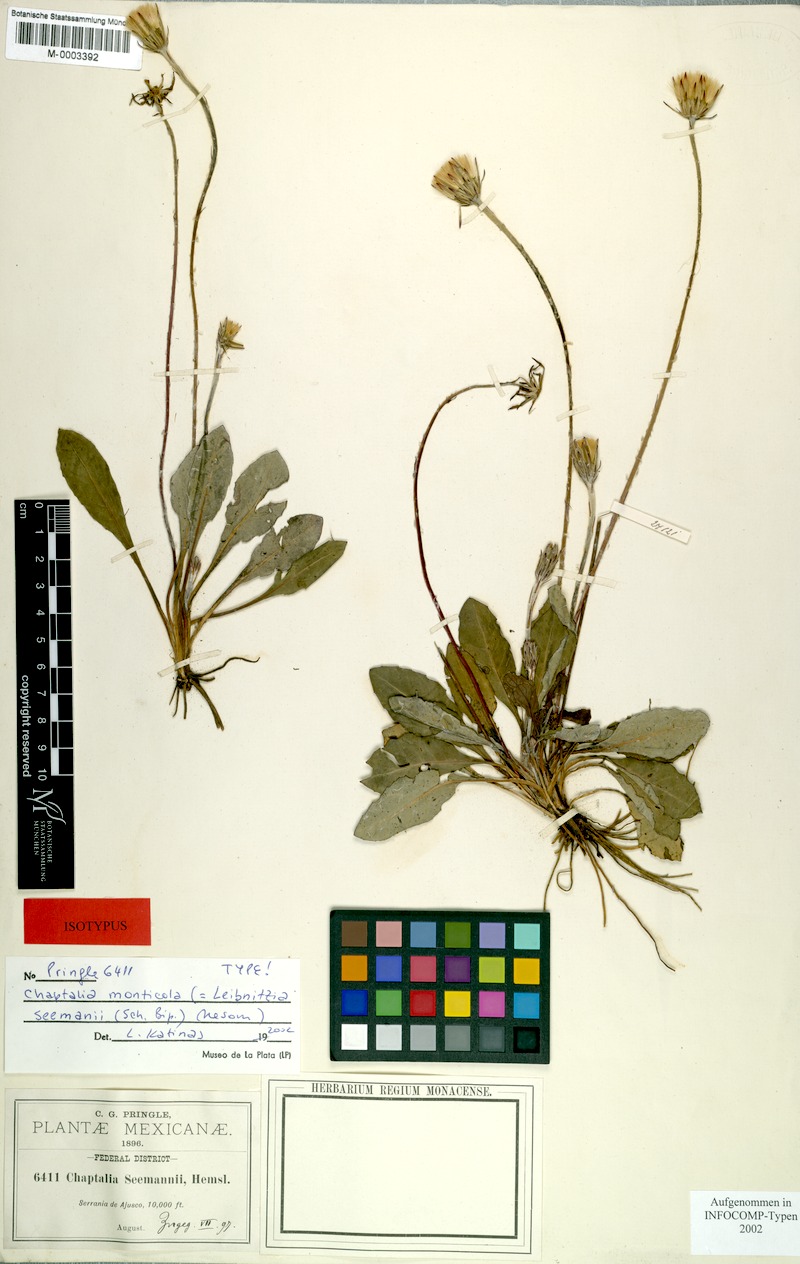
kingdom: Plantae
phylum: Tracheophyta
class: Magnoliopsida
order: Asterales
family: Asteraceae
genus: Leibnitzia
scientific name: Leibnitzia lyrata
